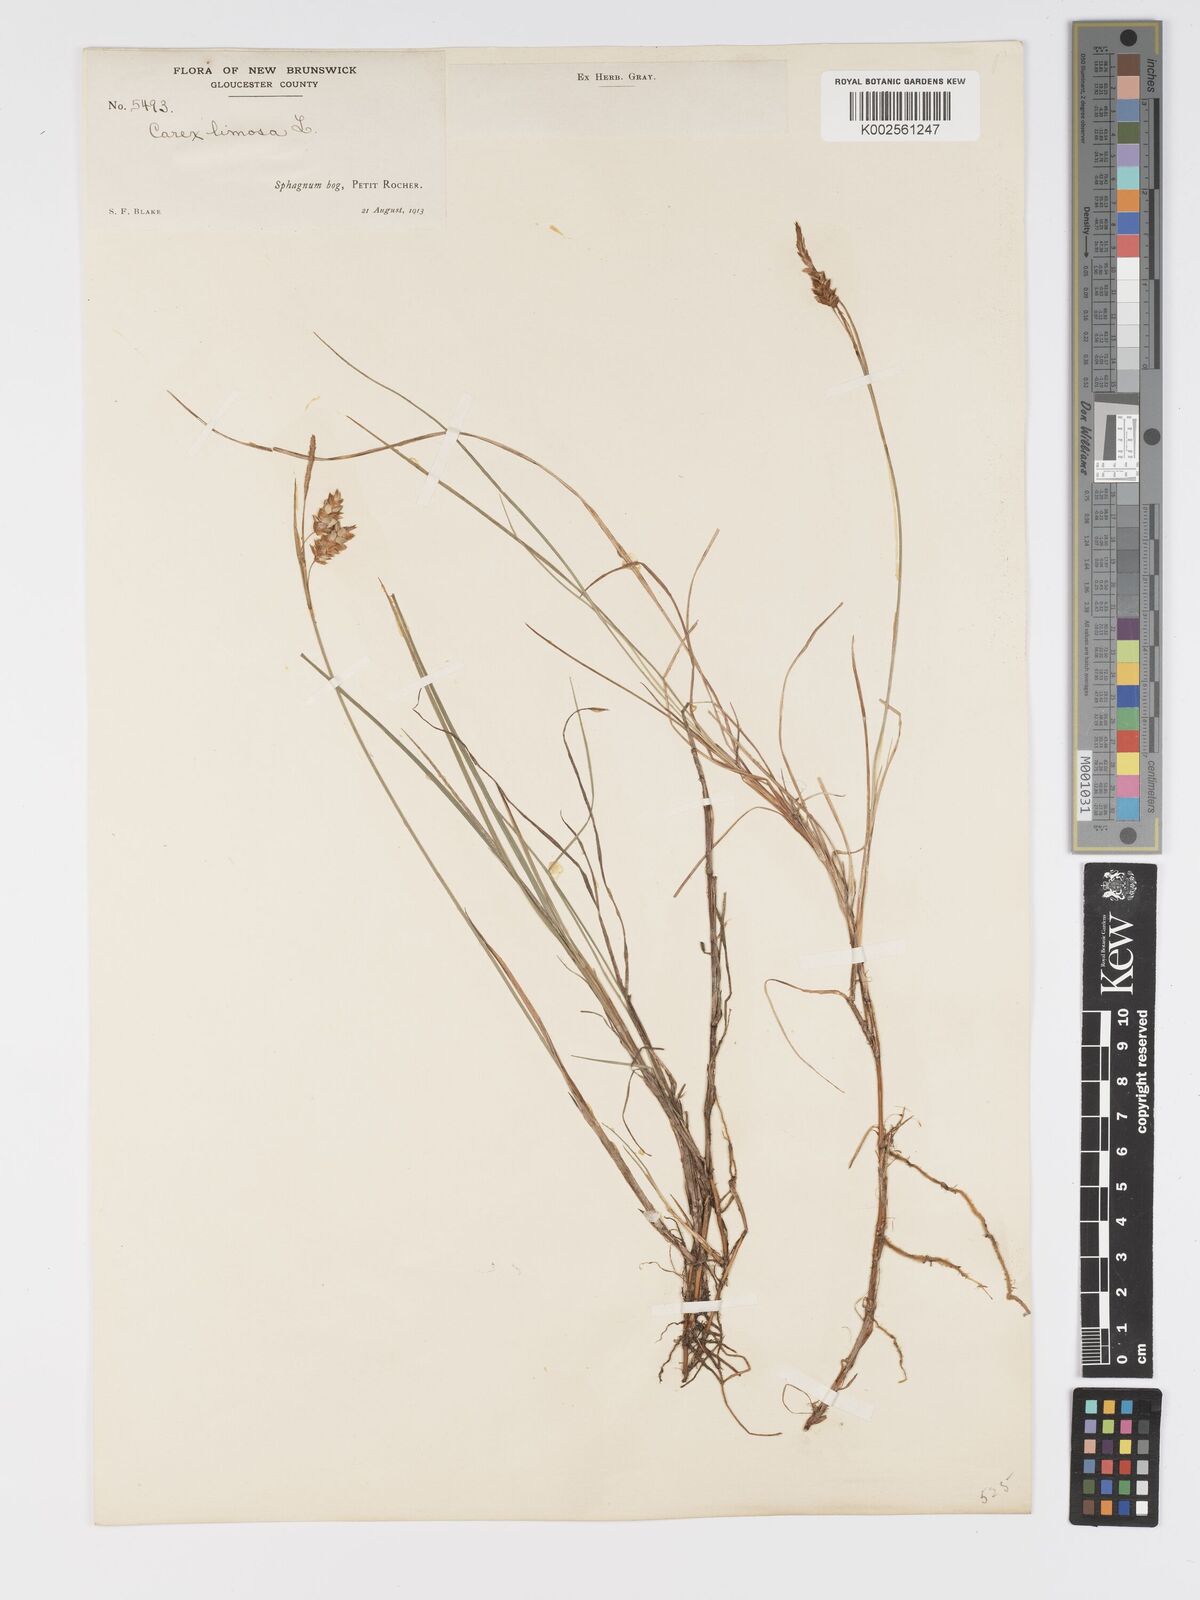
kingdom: Plantae
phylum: Tracheophyta
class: Liliopsida
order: Poales
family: Cyperaceae
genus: Carex
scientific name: Carex limosa
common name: Bog sedge
